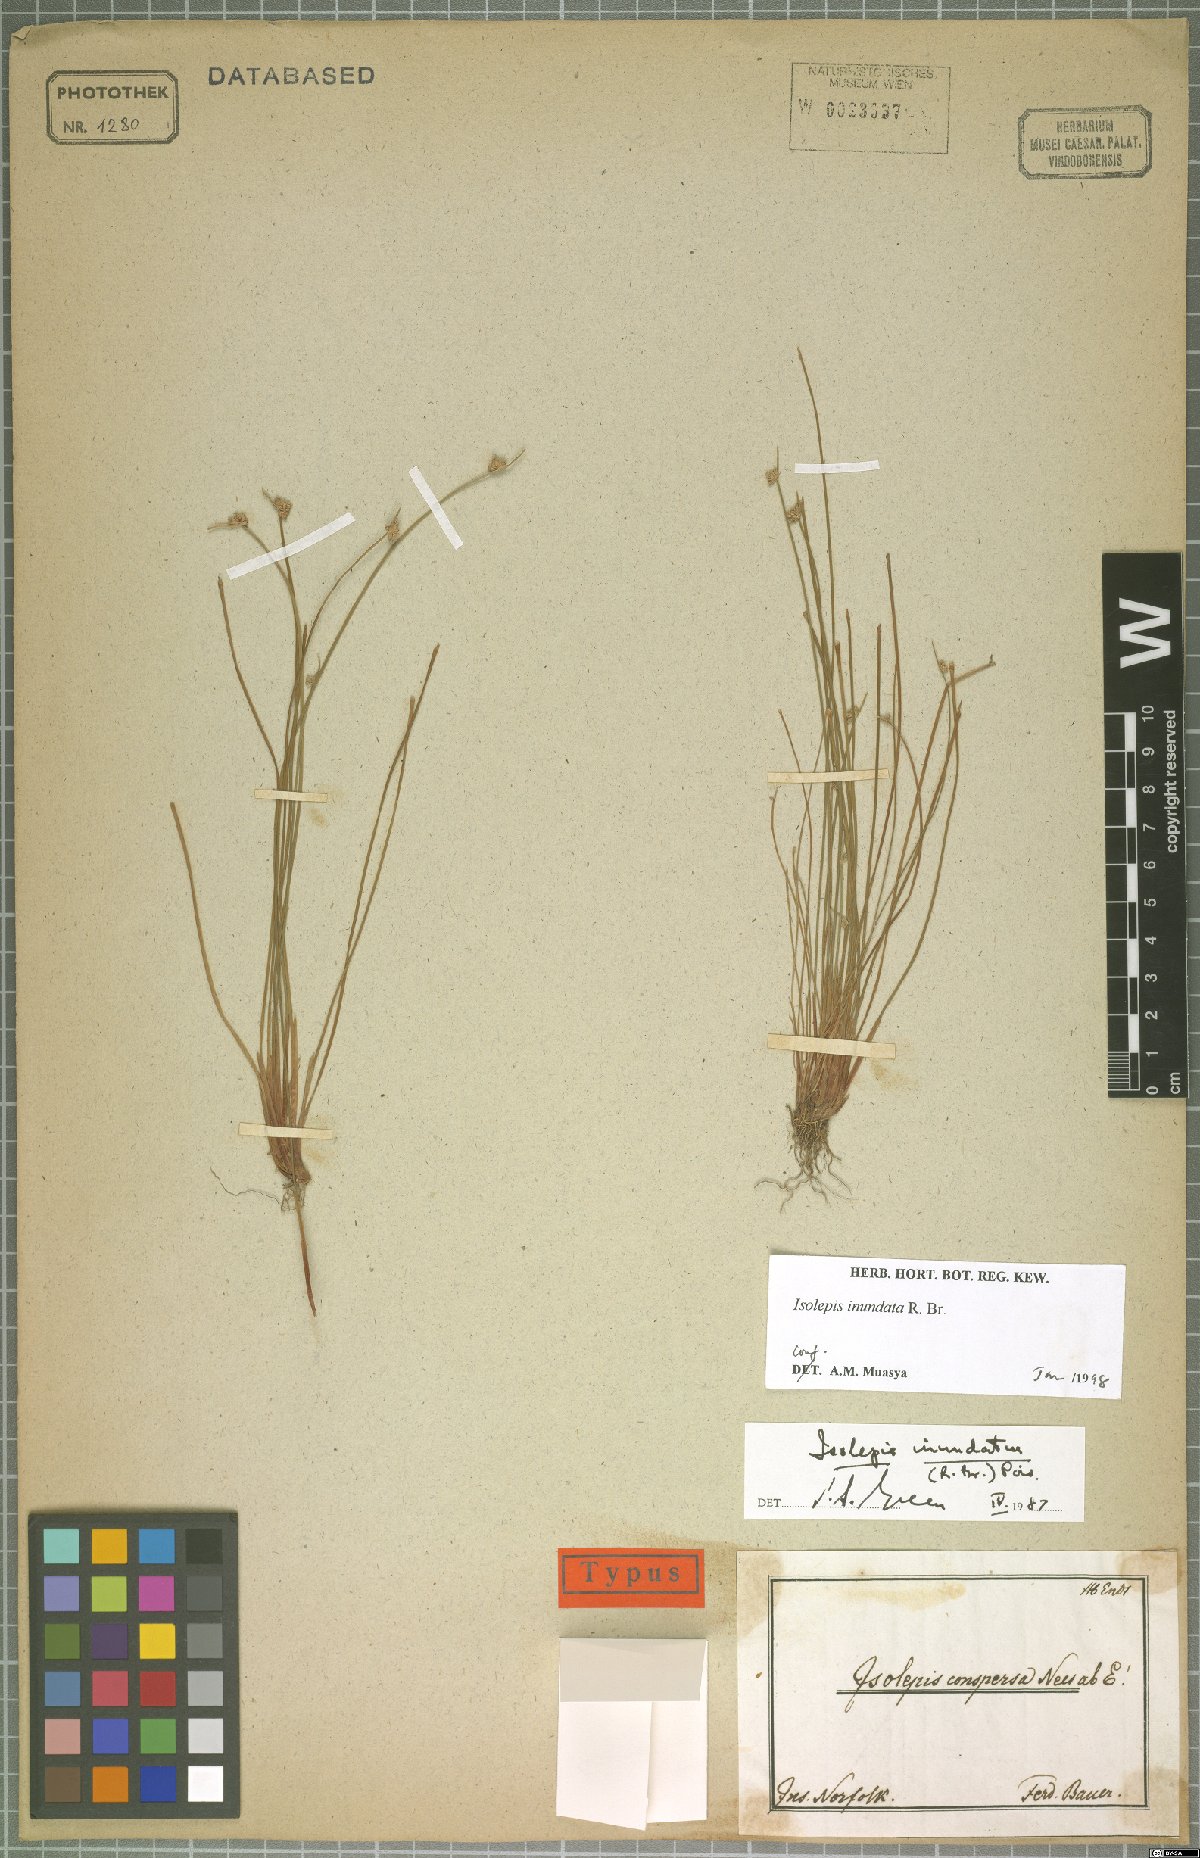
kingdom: Plantae
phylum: Tracheophyta
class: Liliopsida
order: Poales
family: Cyperaceae
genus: Isolepis
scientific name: Isolepis inundata
